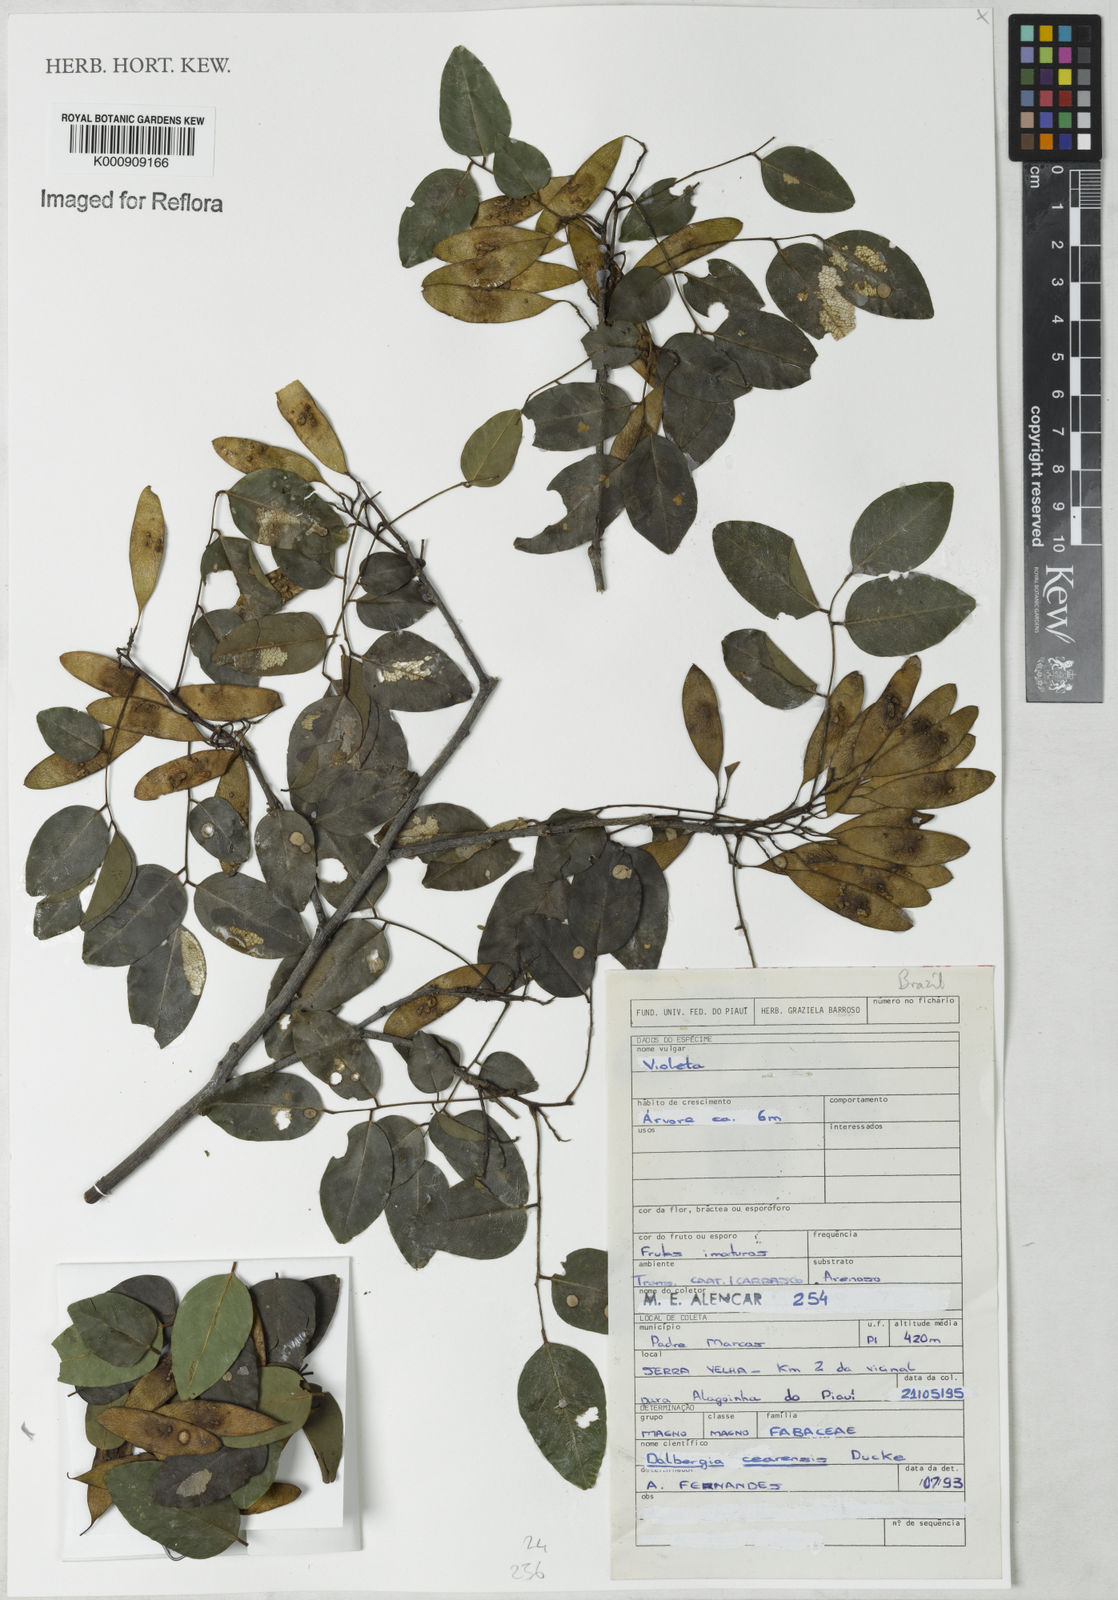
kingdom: Plantae
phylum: Tracheophyta
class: Magnoliopsida
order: Fabales
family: Fabaceae
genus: Dalbergia
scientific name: Dalbergia cearensis
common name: Brazilian-king-wood
